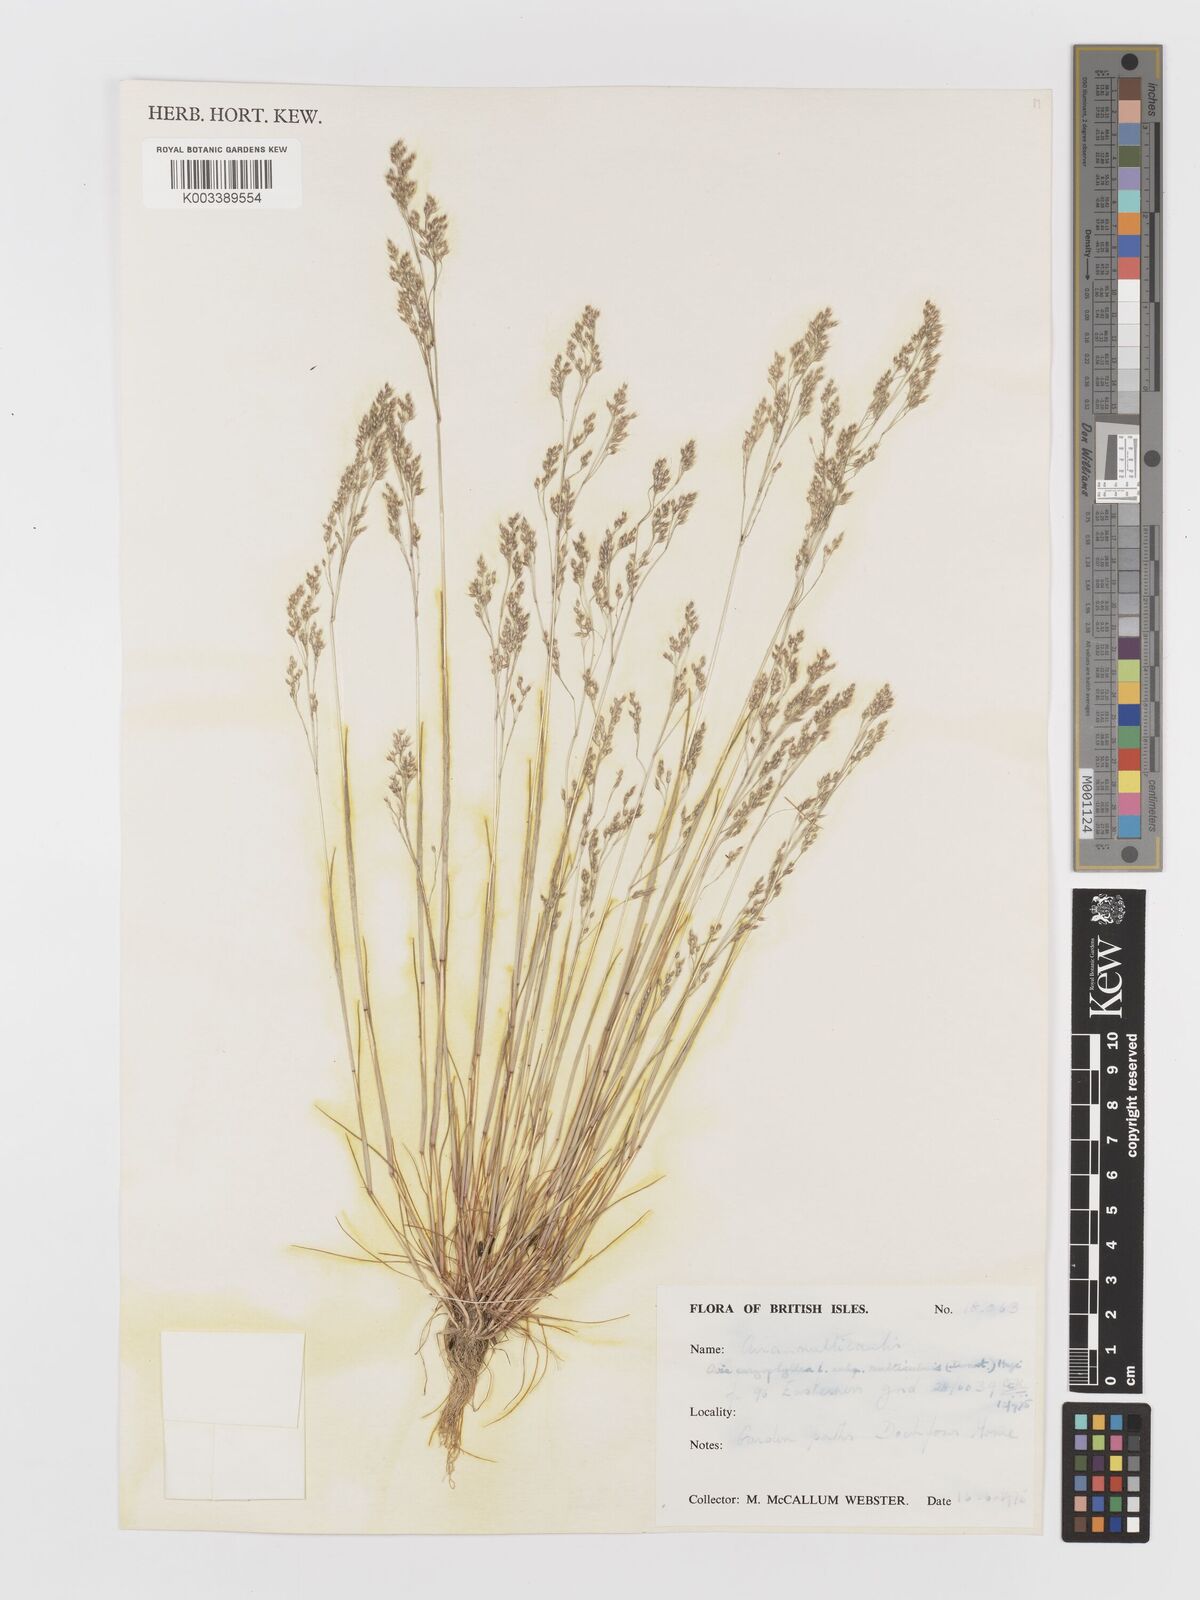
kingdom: Plantae
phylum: Tracheophyta
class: Liliopsida
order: Poales
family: Poaceae
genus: Aira
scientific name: Aira caryophyllea
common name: Silver hairgrass
